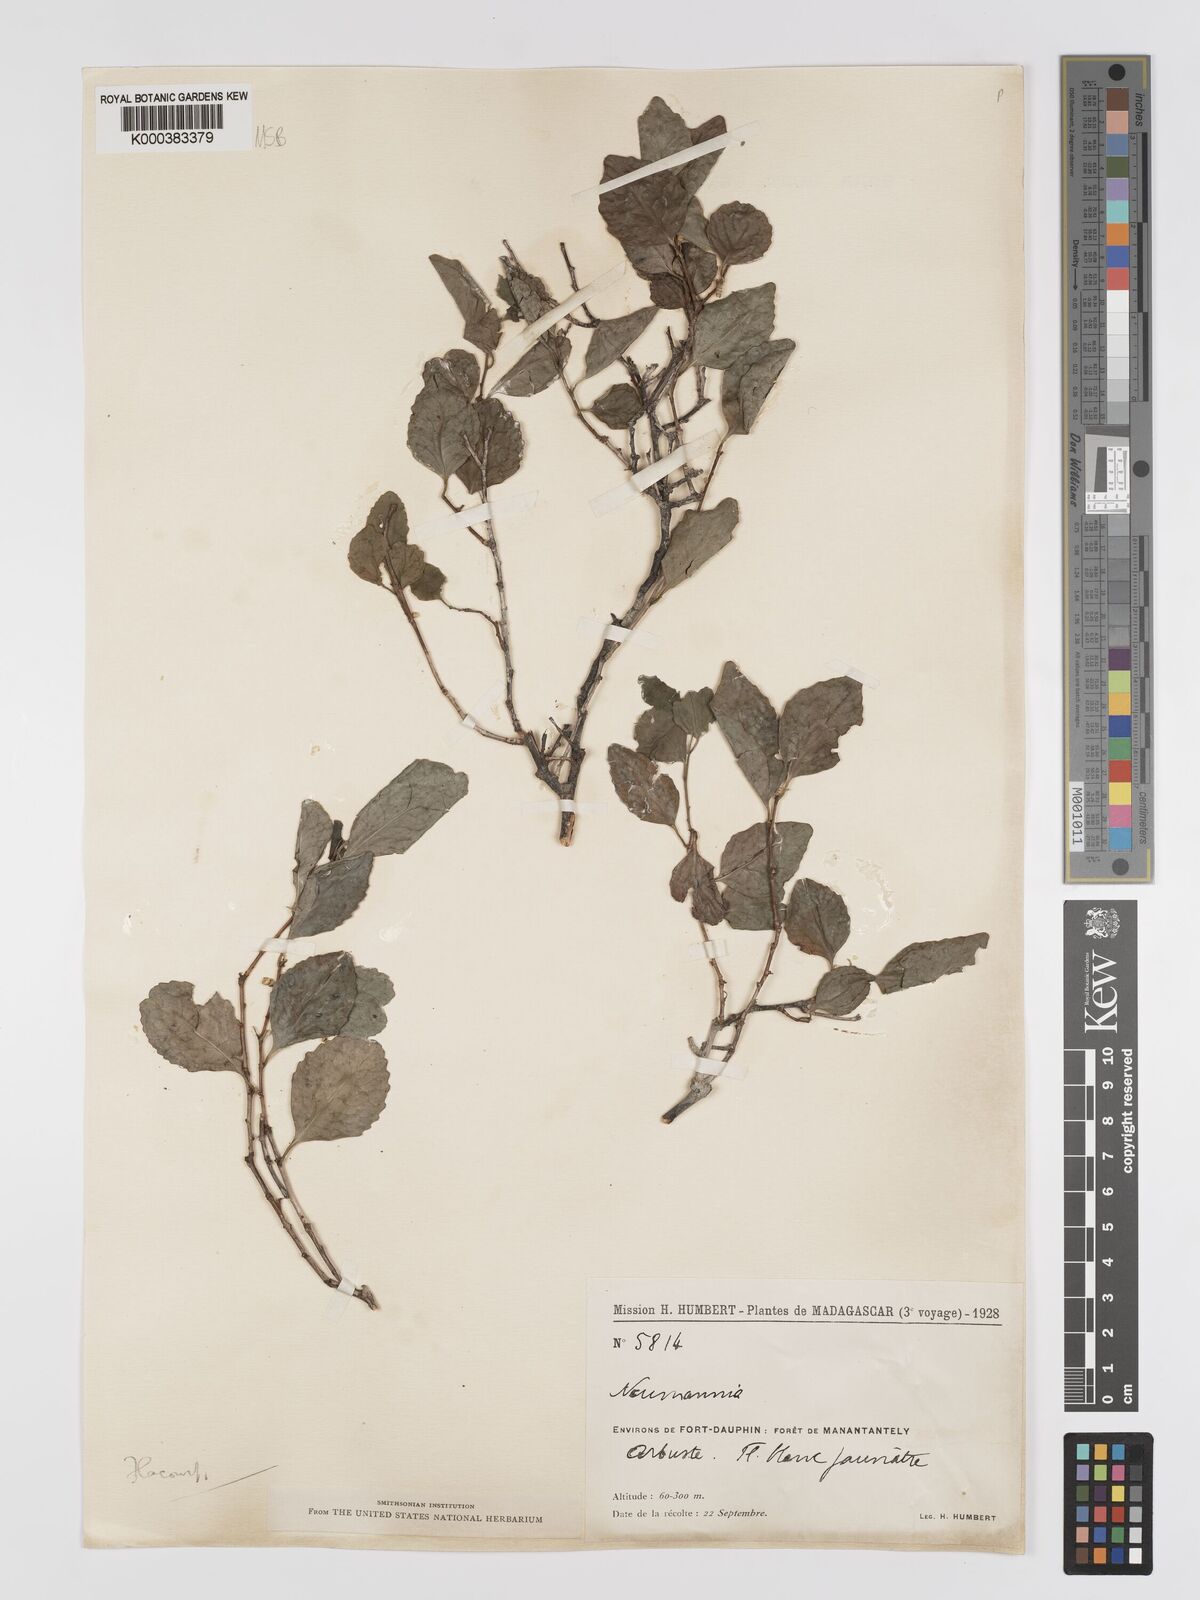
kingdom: Plantae
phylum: Tracheophyta
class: Magnoliopsida
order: Crossosomatales
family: Aphloiaceae
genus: Aphloia
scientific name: Aphloia theiformis
